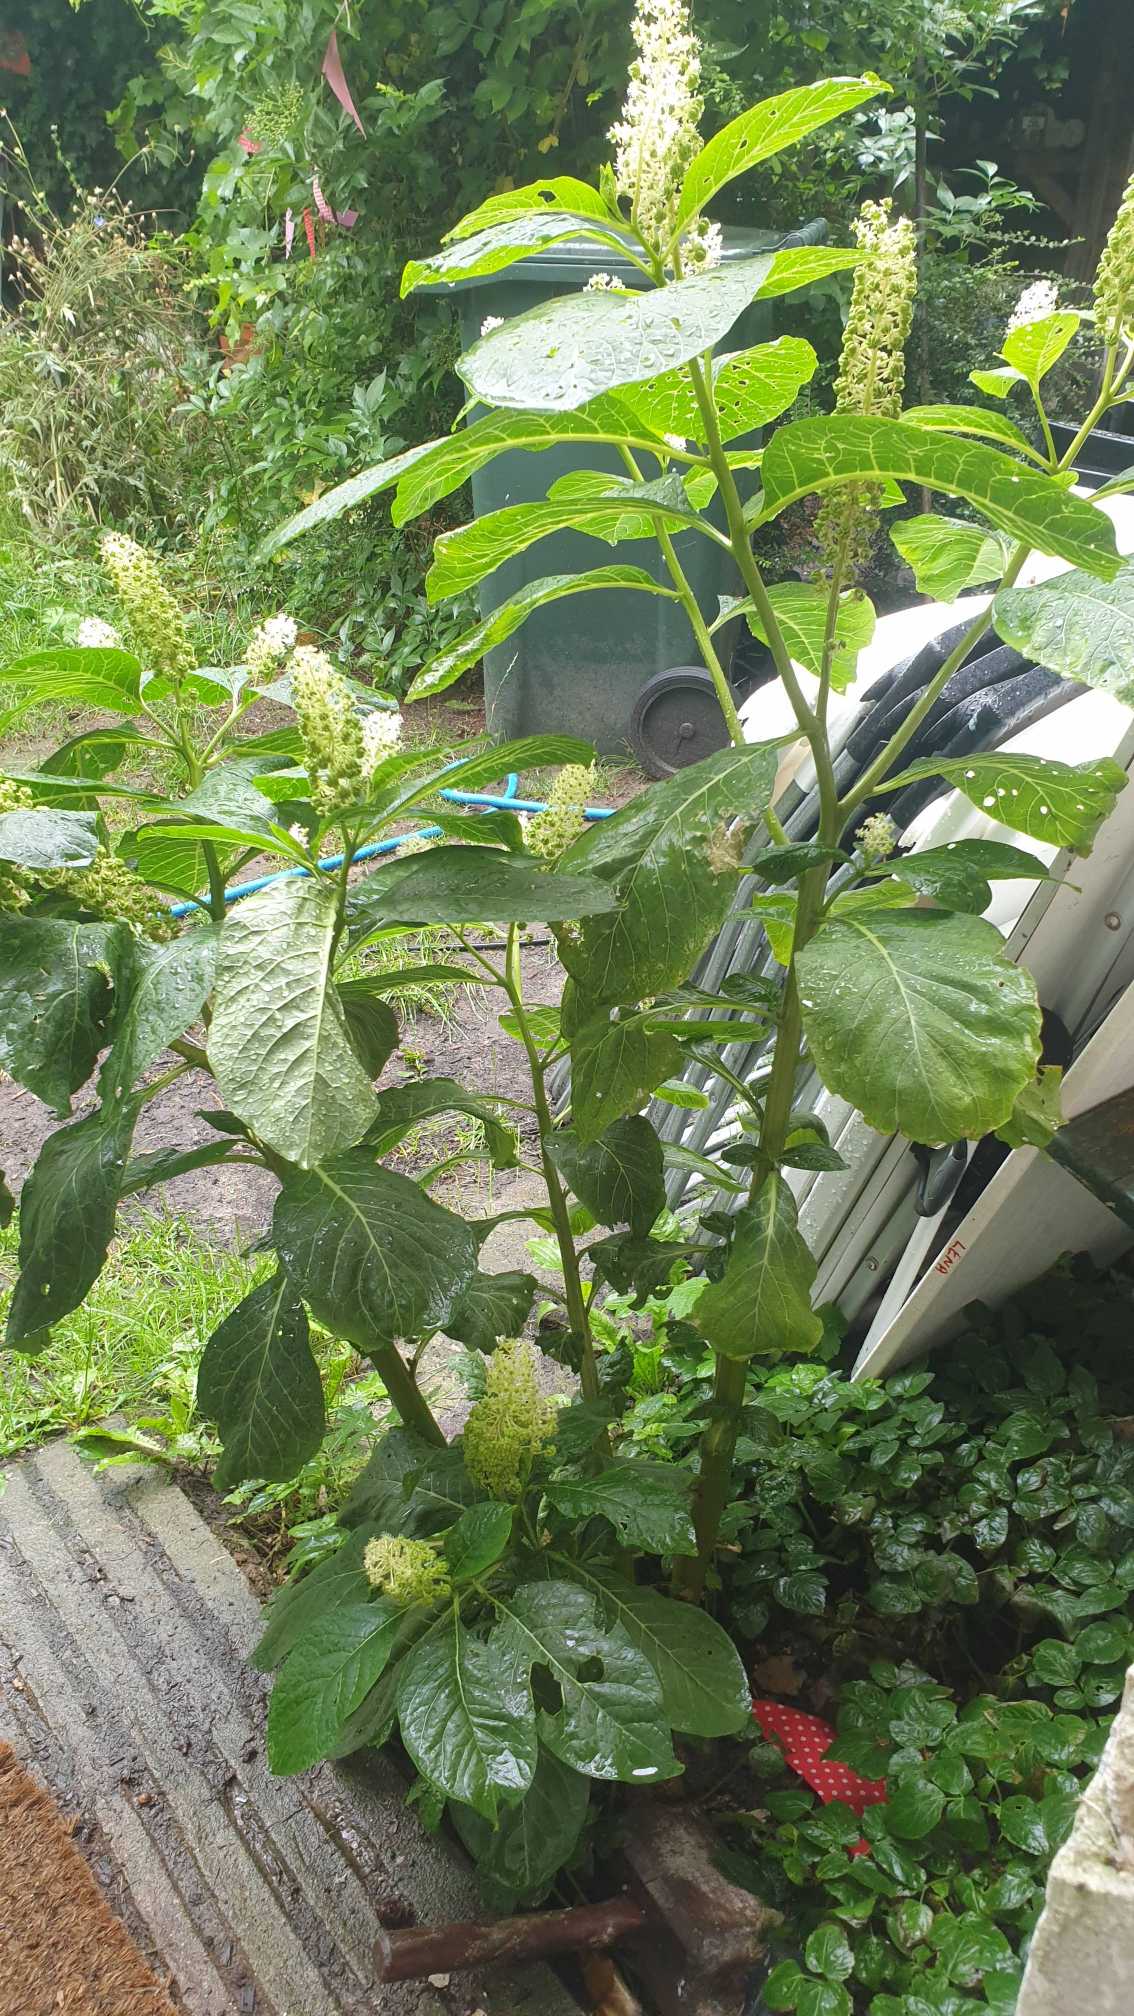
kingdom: Plantae
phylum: Tracheophyta
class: Magnoliopsida
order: Caryophyllales
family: Phytolaccaceae
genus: Phytolacca
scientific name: Phytolacca acinosa
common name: Asiatisk kermesbær
